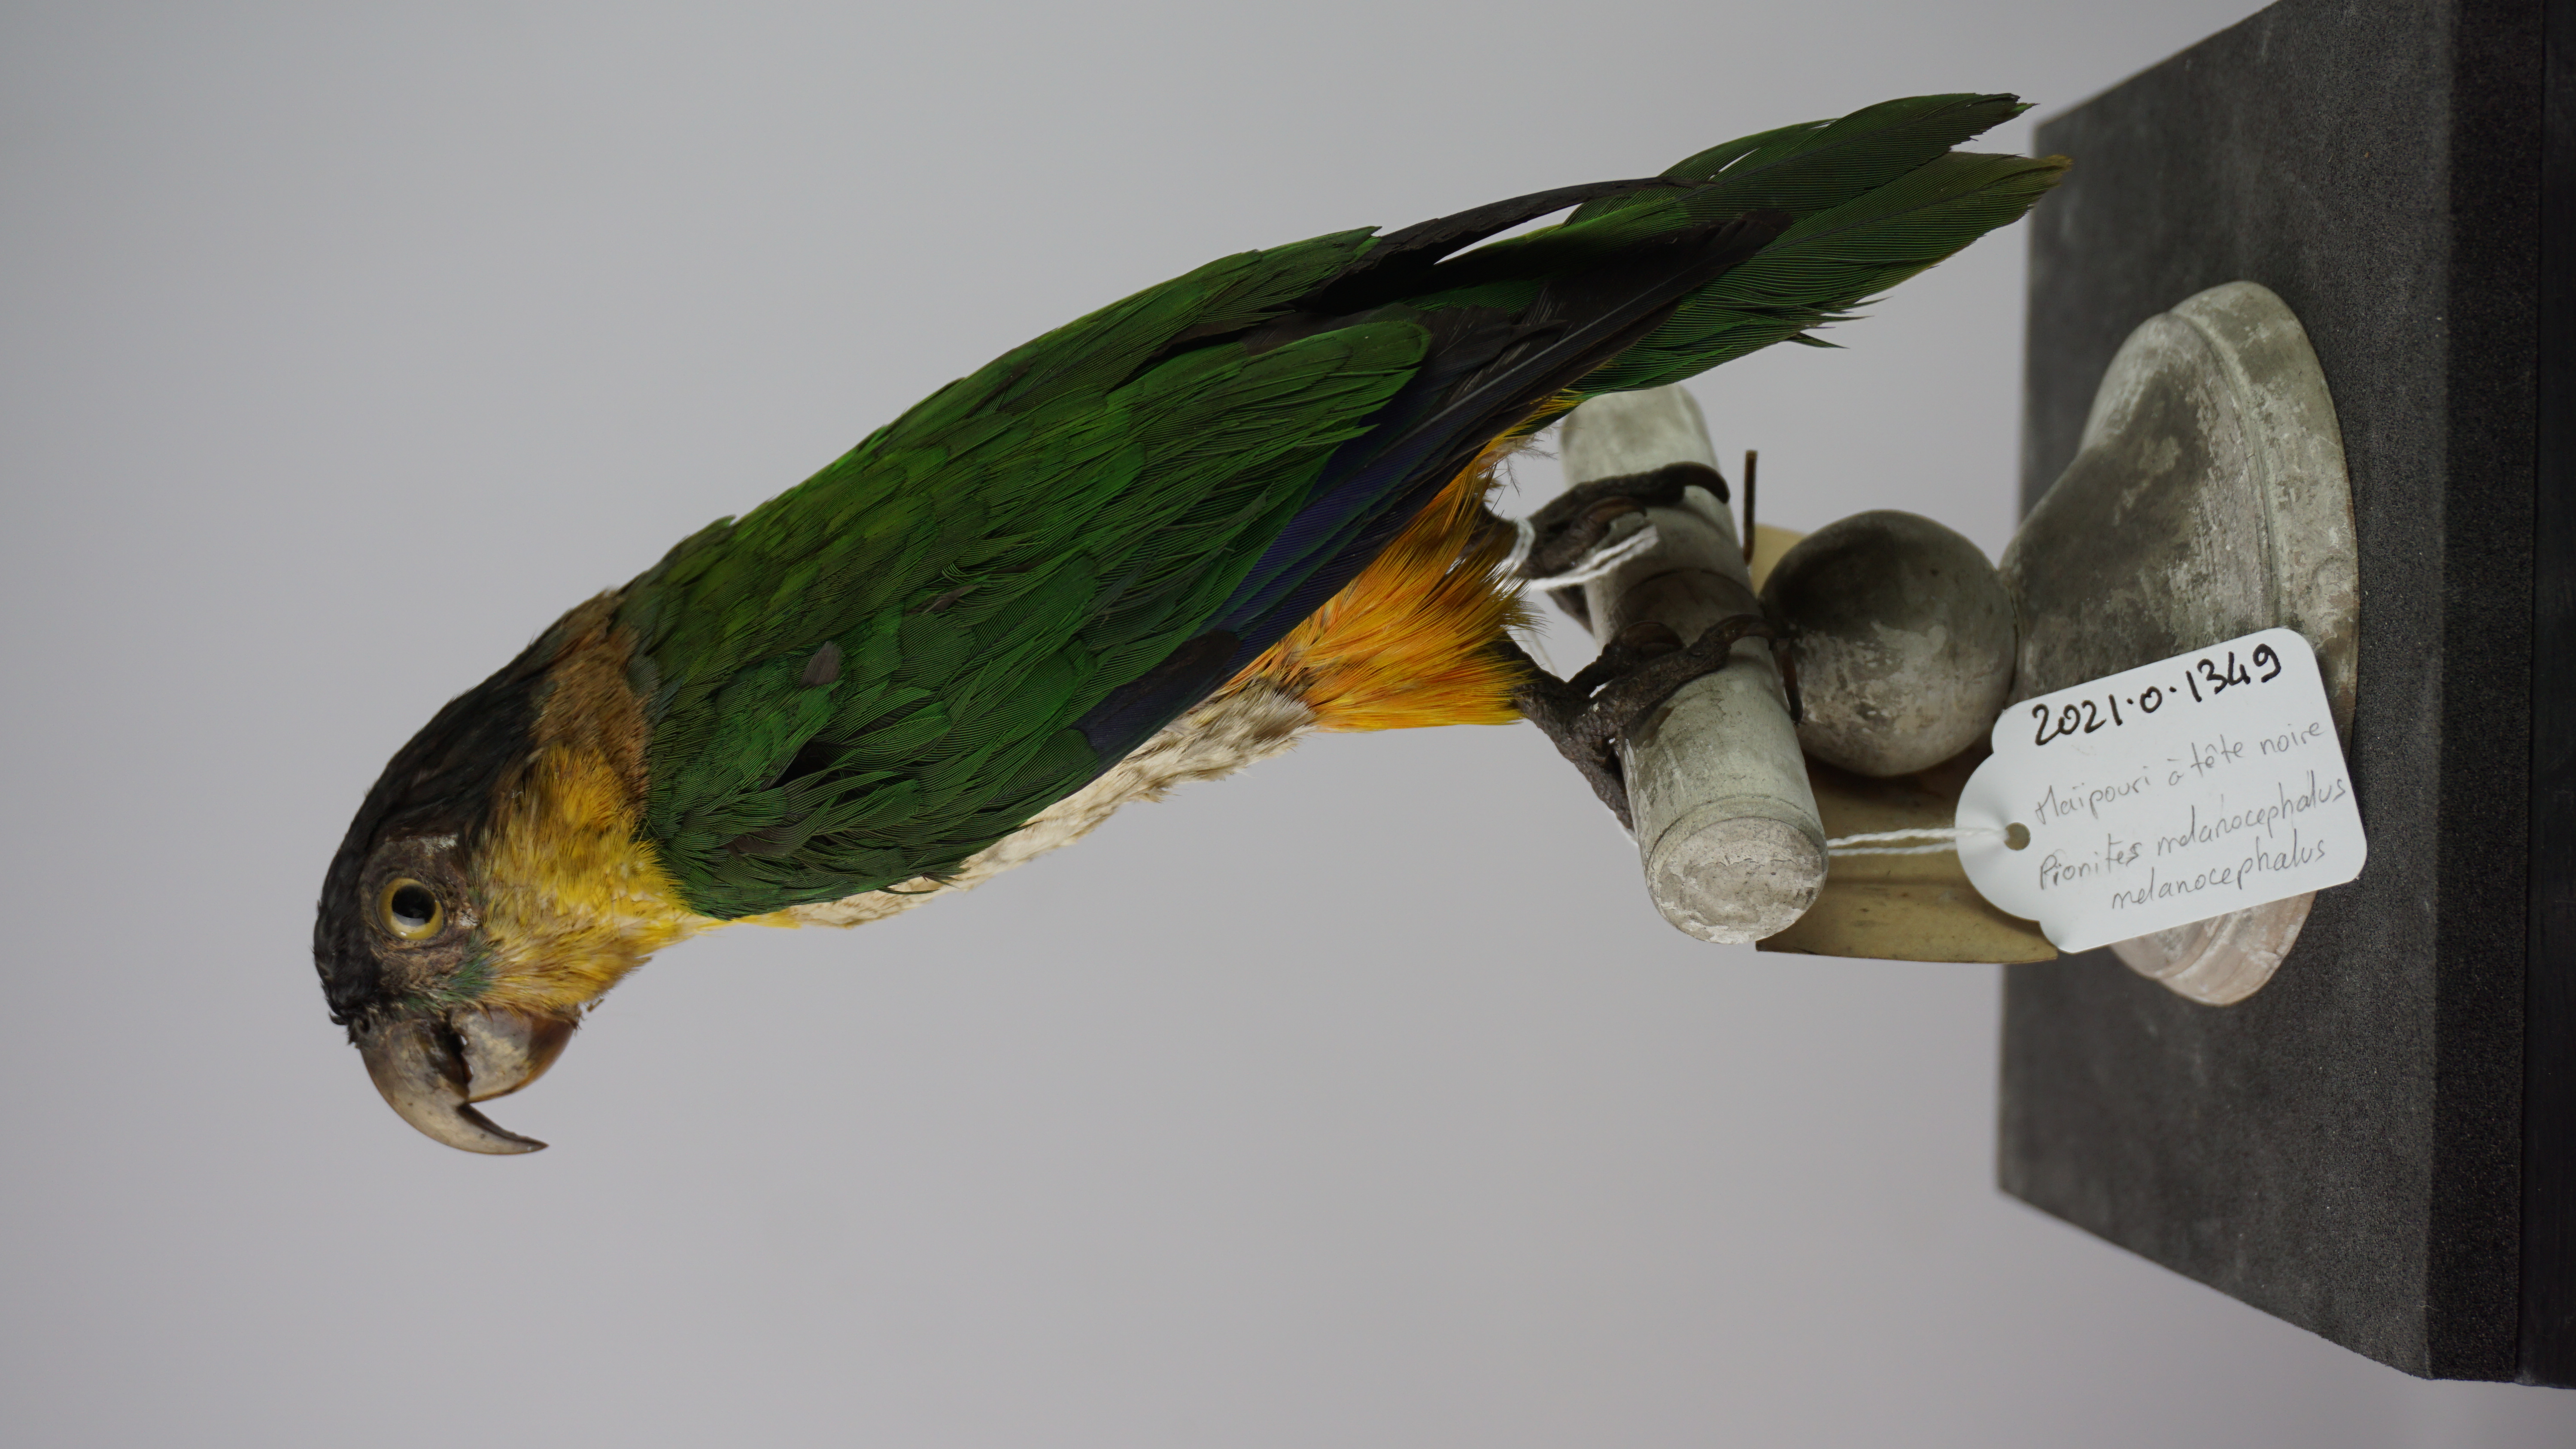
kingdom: Animalia
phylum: Chordata
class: Aves
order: Psittaciformes
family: Psittacidae
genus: Pionites
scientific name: Pionites melanocephalus
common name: Black-headed parrot
